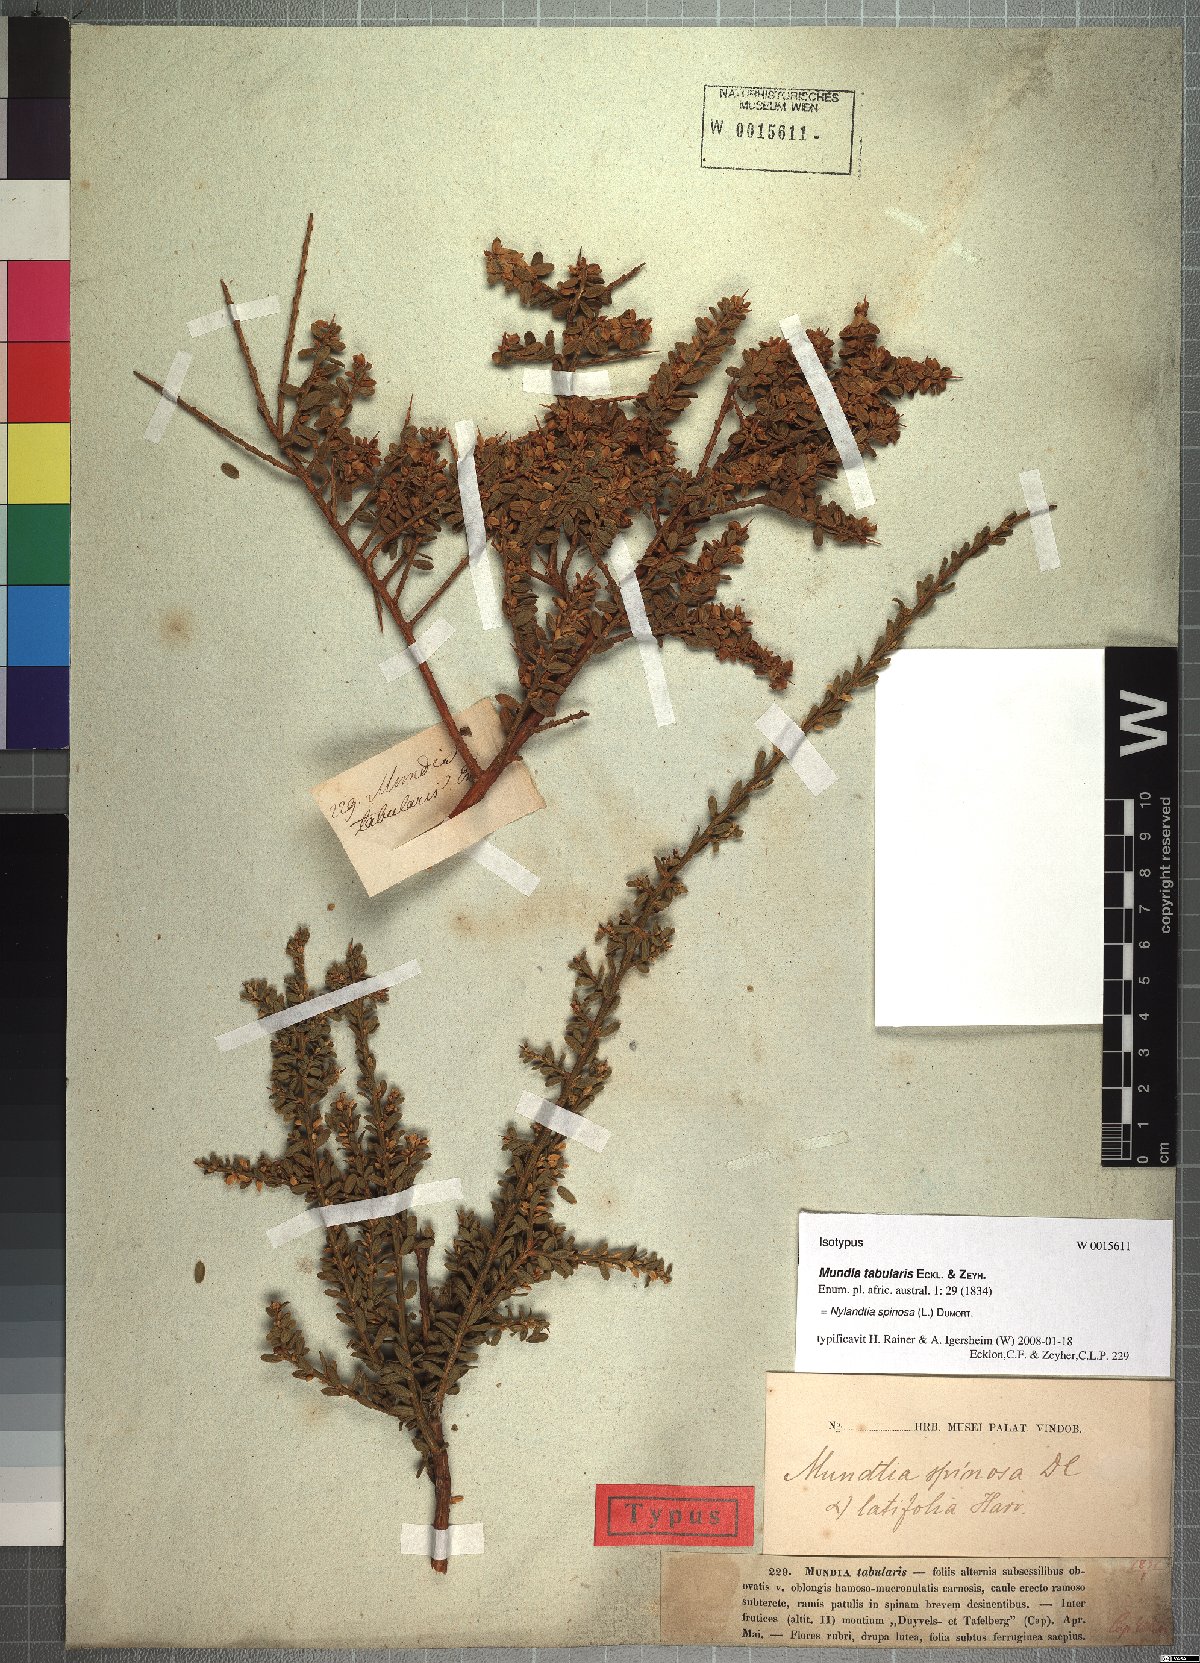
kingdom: Plantae
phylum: Tracheophyta
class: Magnoliopsida
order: Fabales
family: Polygalaceae
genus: Muraltia
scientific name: Muraltia spinosa
